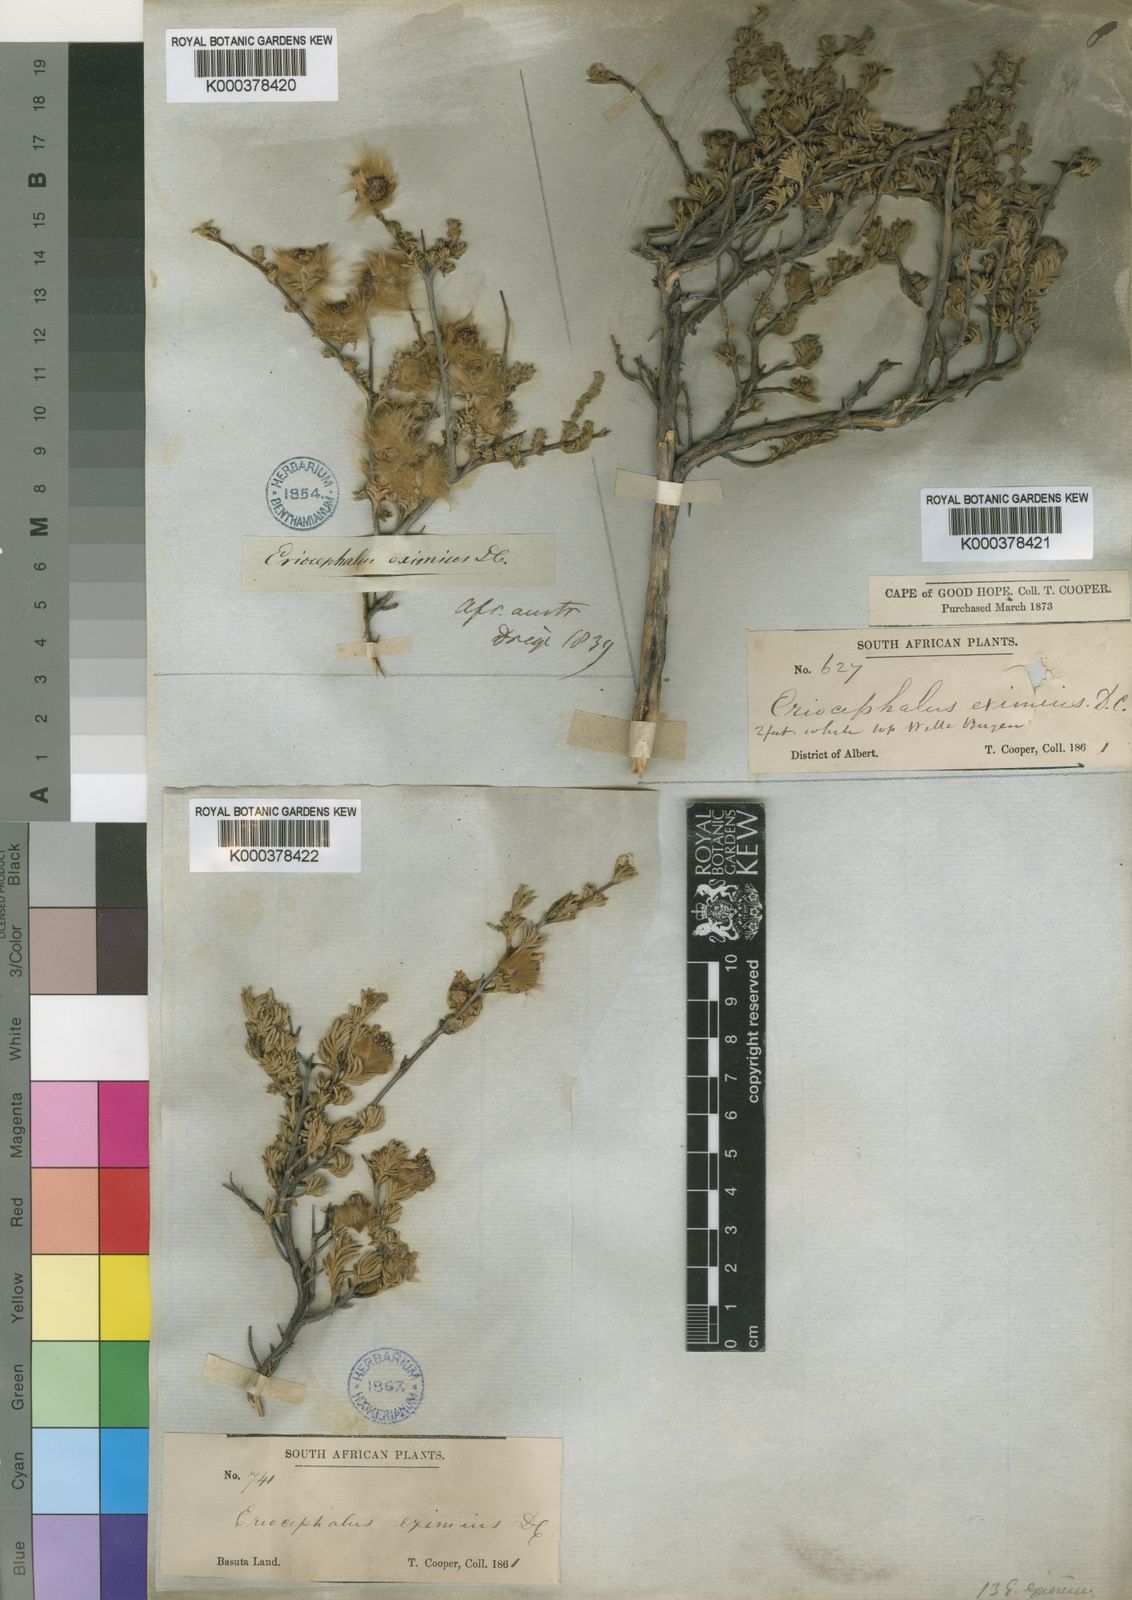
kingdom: Plantae
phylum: Tracheophyta
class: Magnoliopsida
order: Asterales
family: Asteraceae
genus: Eriocephalus
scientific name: Eriocephalus eximius
